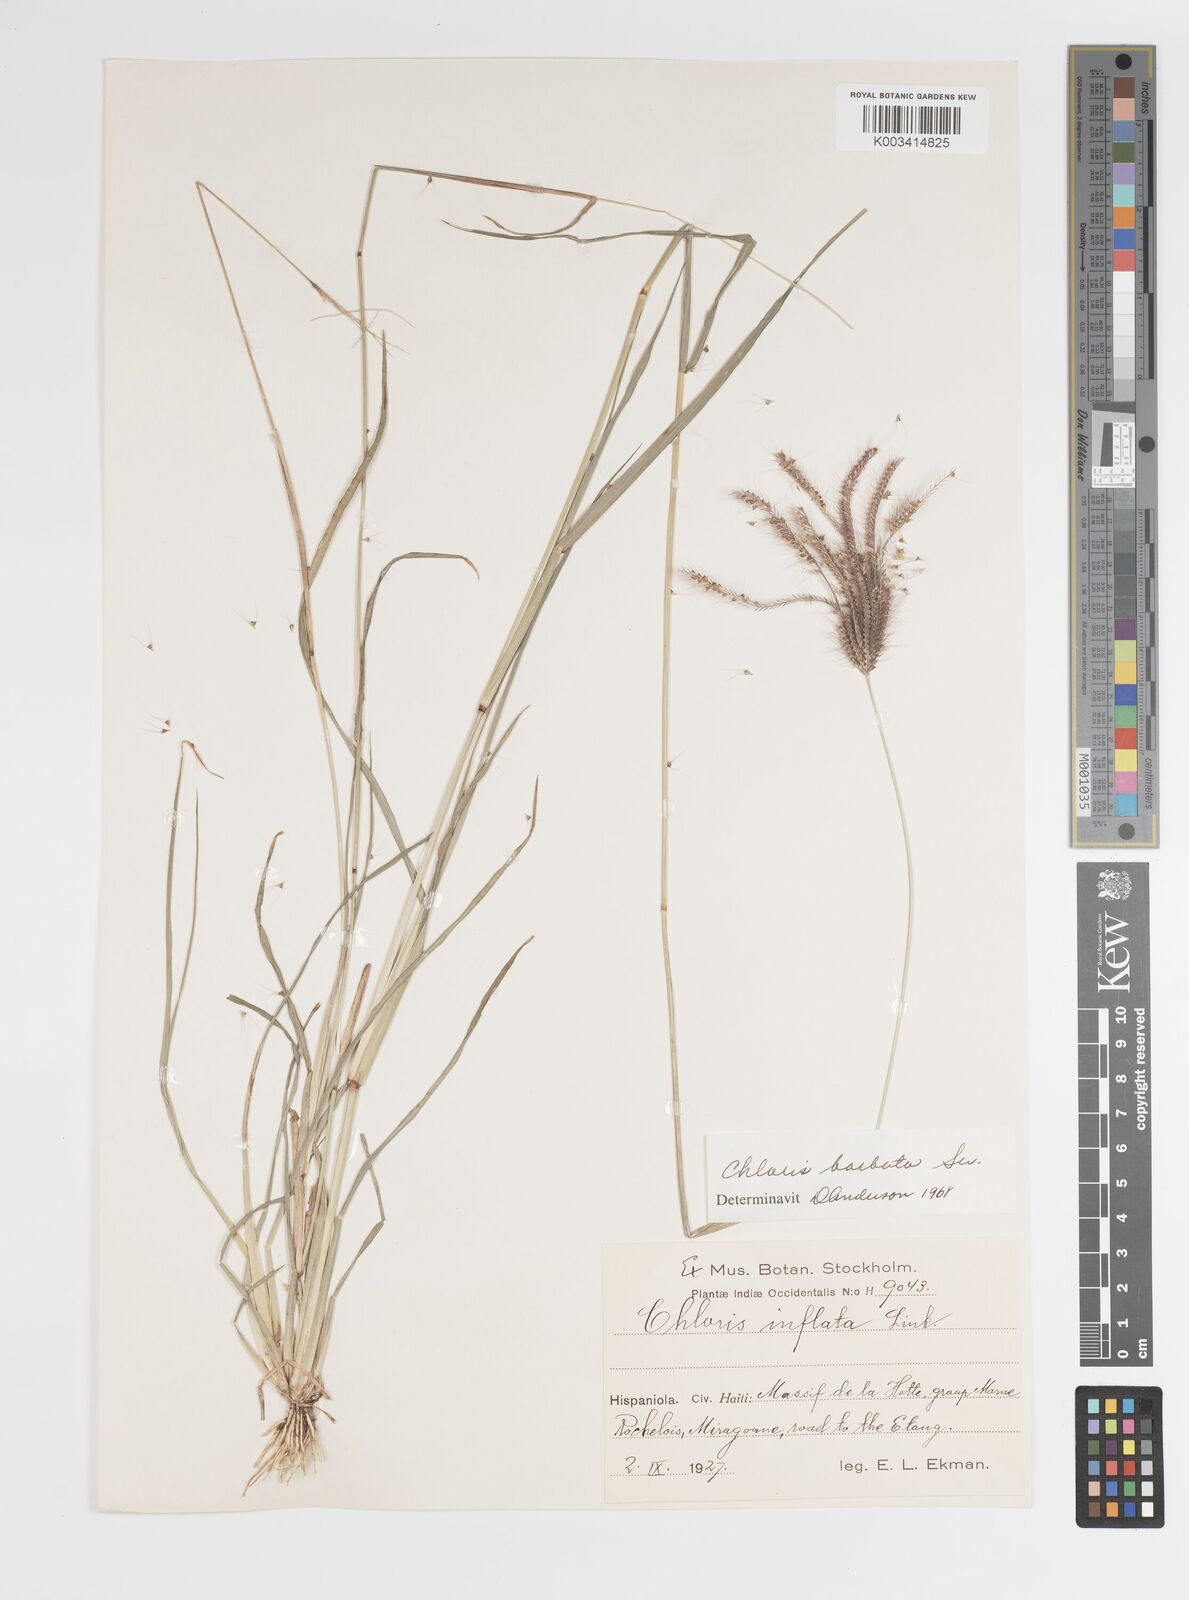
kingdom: Plantae
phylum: Tracheophyta
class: Liliopsida
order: Poales
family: Poaceae
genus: Chloris
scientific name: Chloris barbata
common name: Swollen fingergrass
